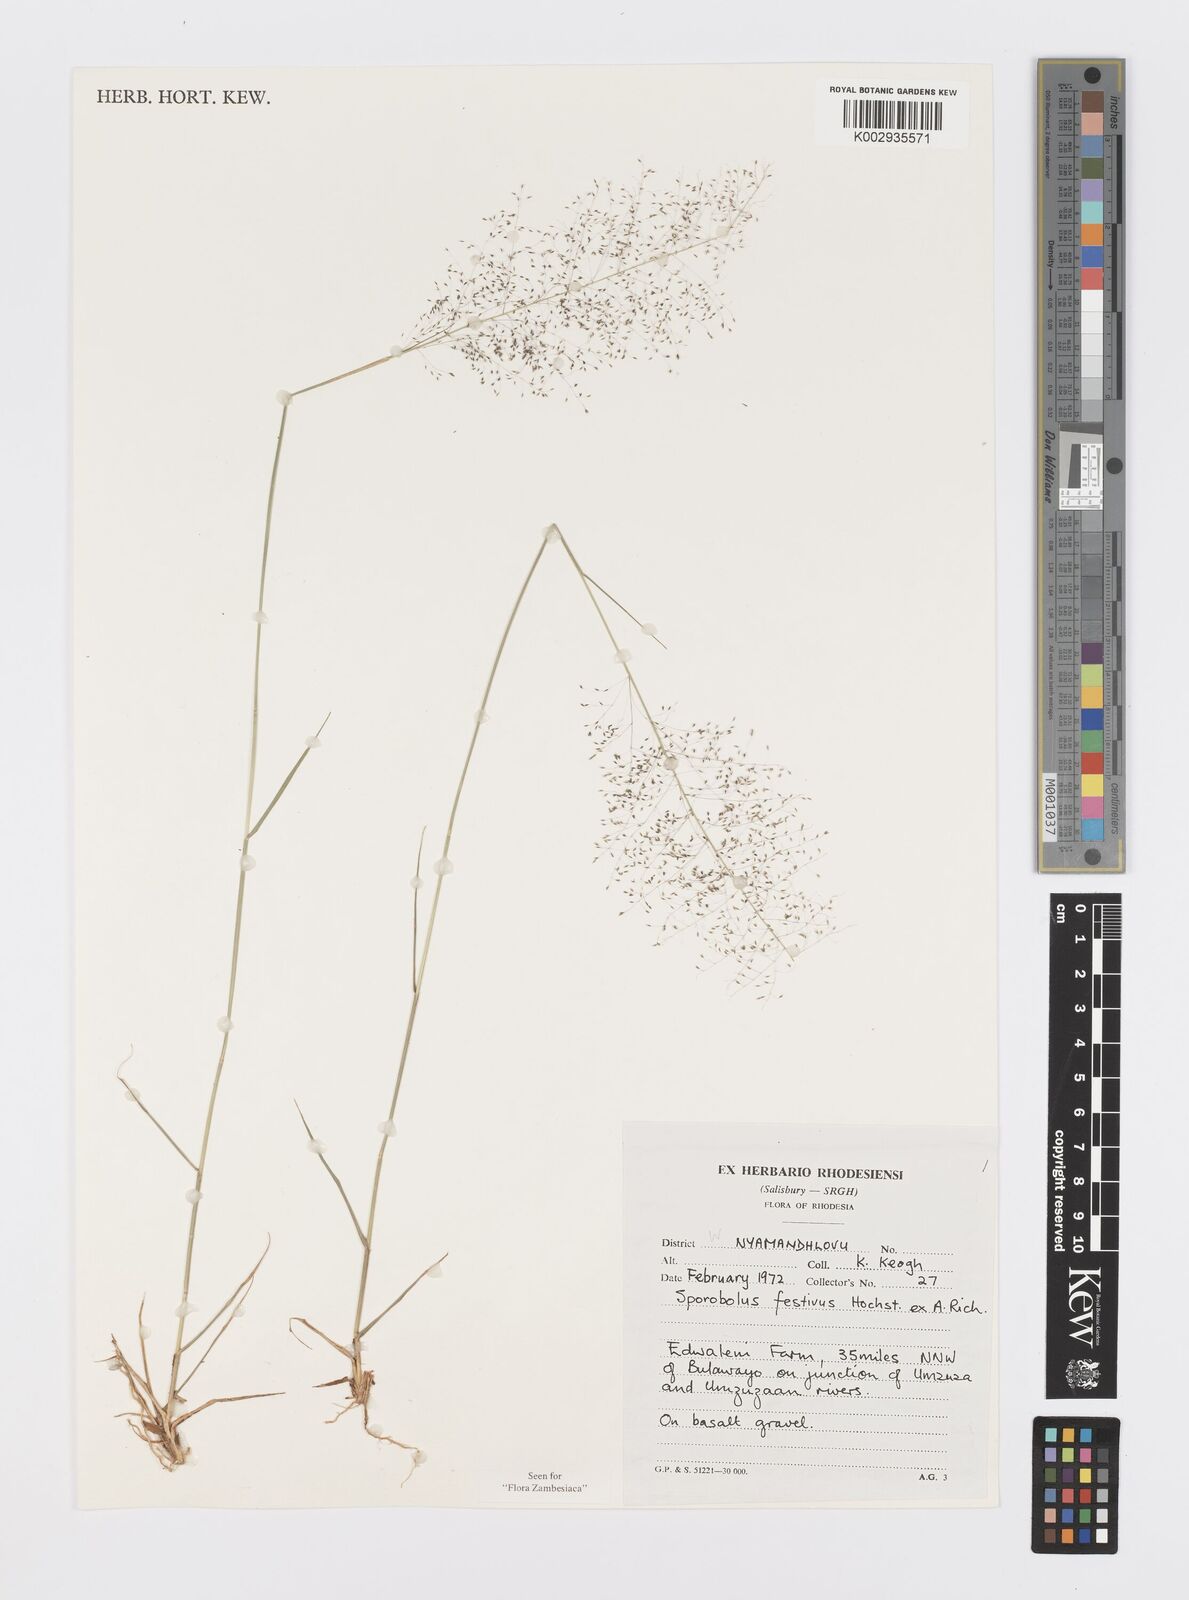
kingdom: Plantae
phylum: Tracheophyta
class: Liliopsida
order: Poales
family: Poaceae
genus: Sporobolus
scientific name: Sporobolus festivus
